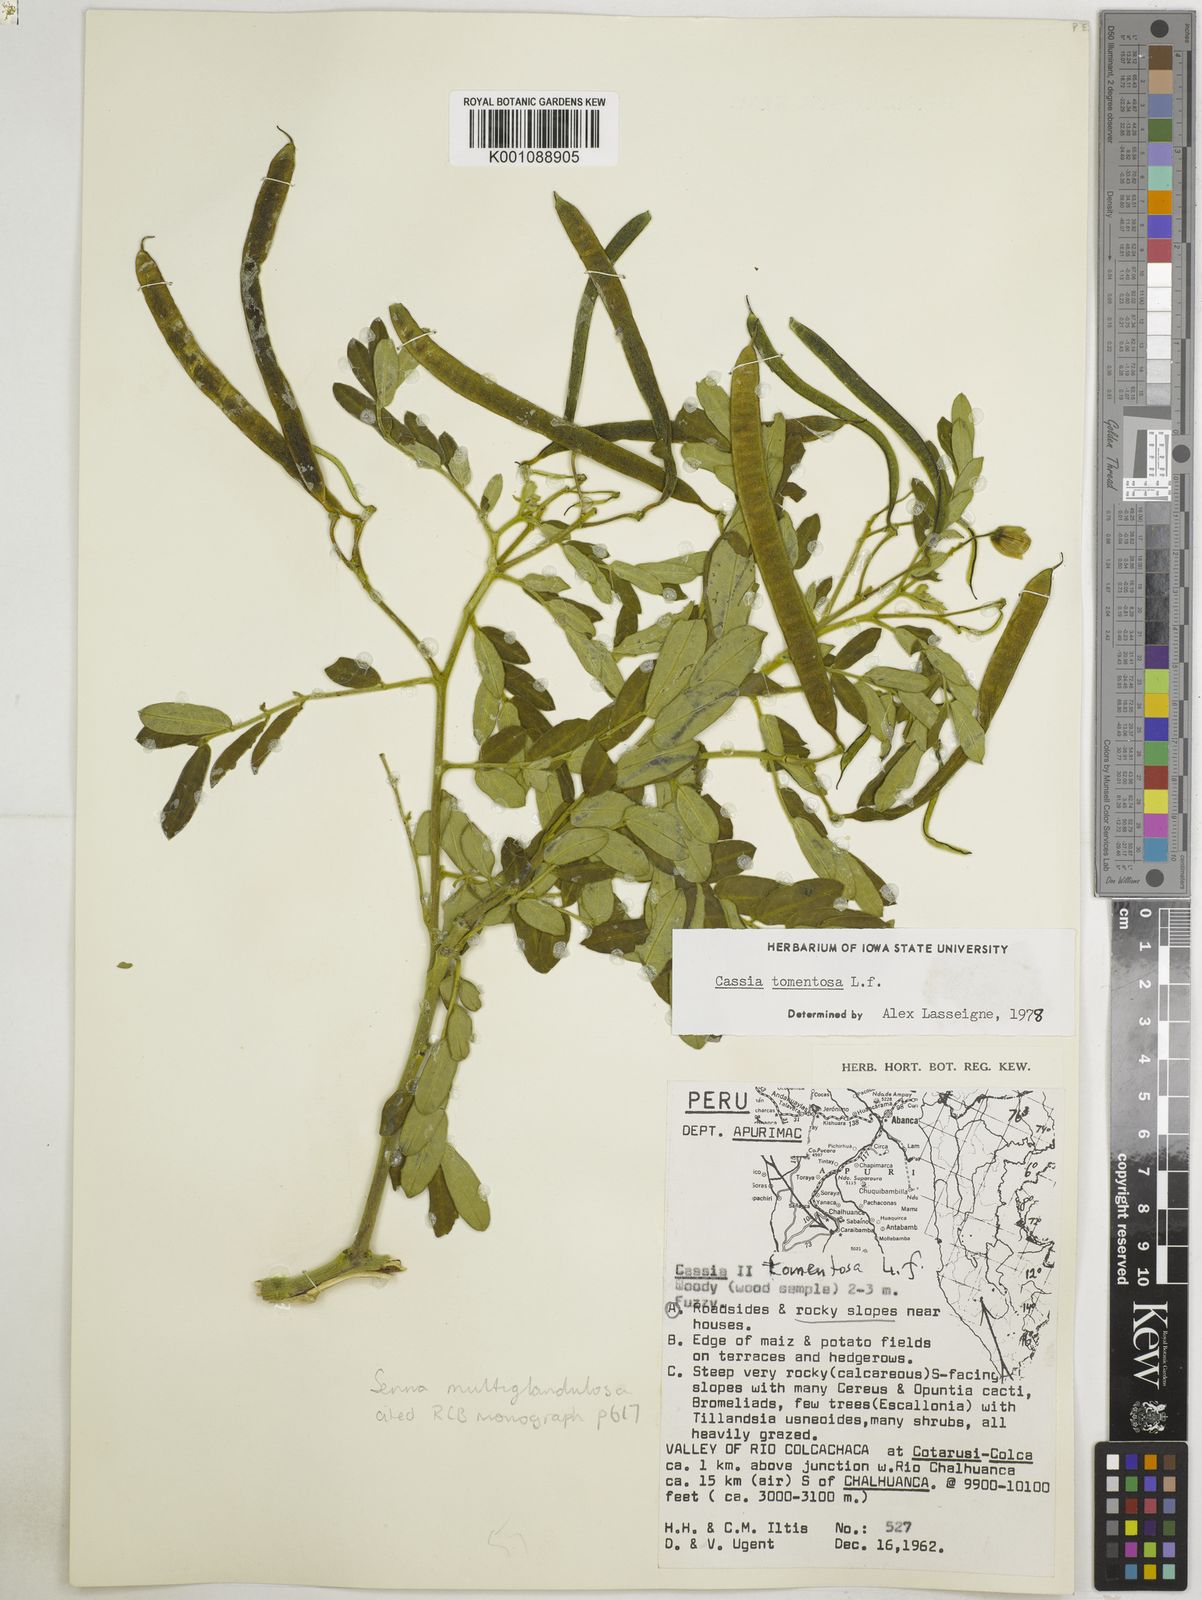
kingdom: Plantae
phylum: Tracheophyta
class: Magnoliopsida
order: Fabales
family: Fabaceae
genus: Senna
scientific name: Senna multiglandulosa
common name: Glandular senna
